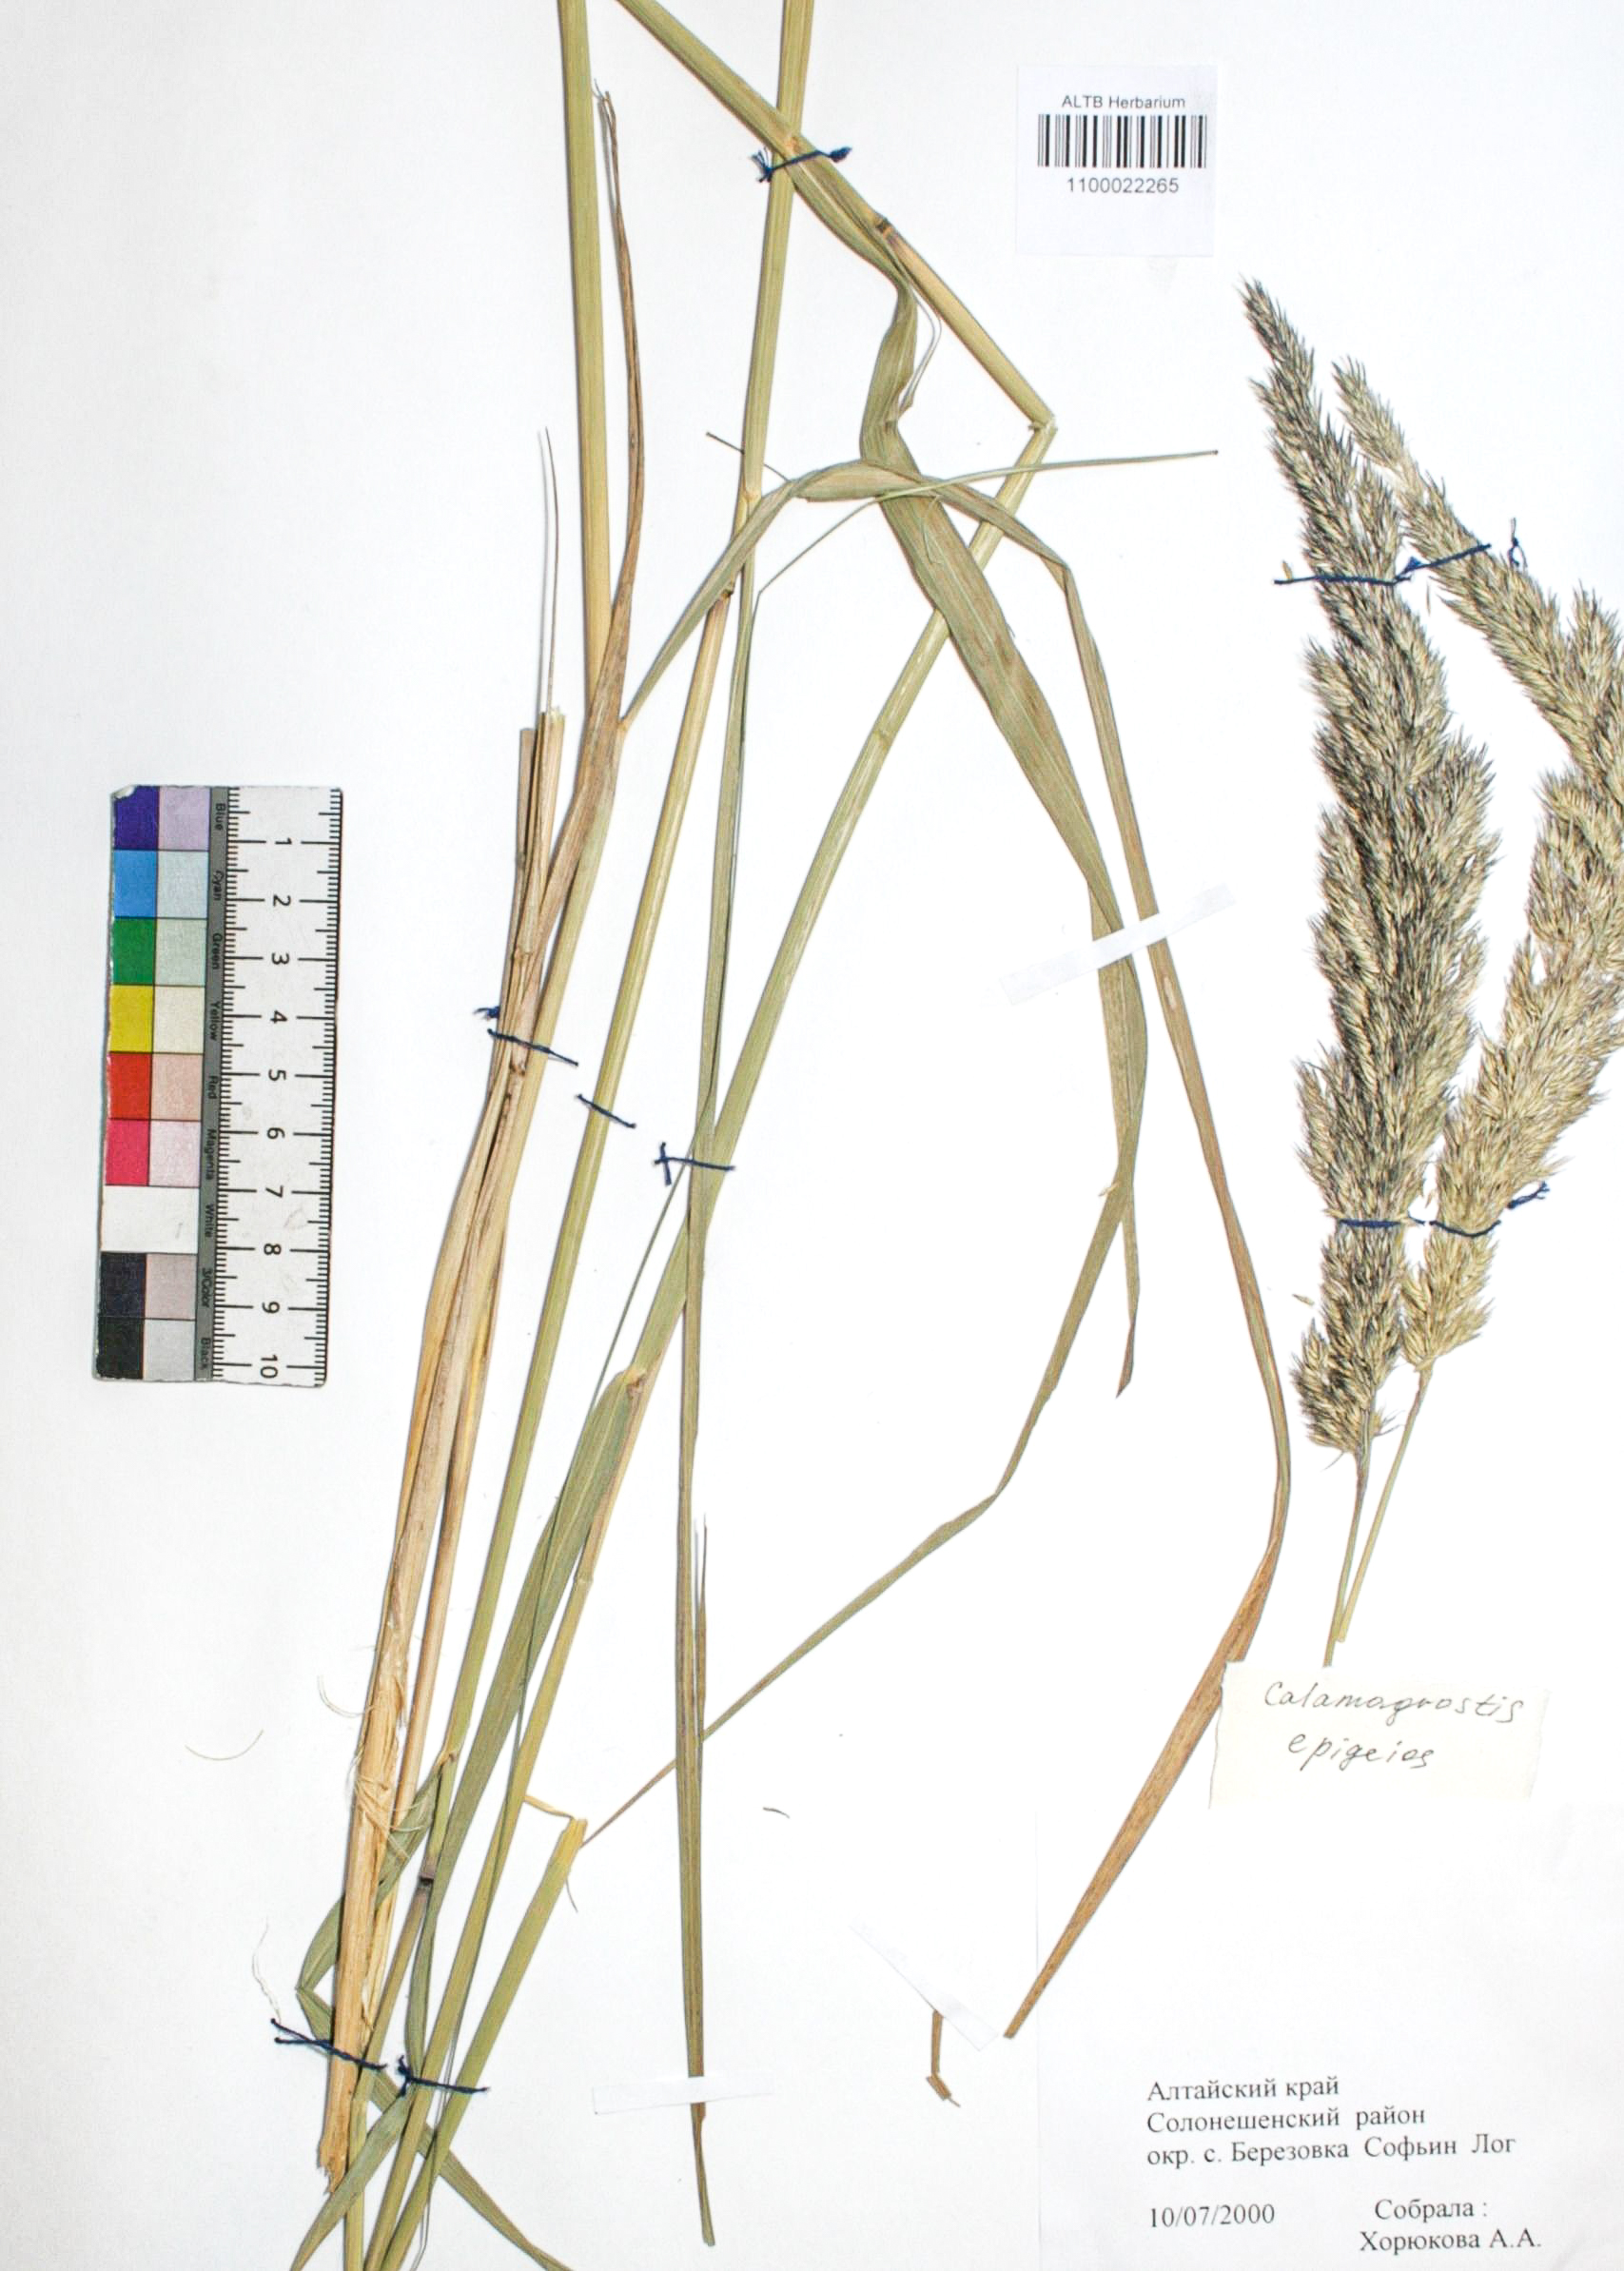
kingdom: Plantae
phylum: Tracheophyta
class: Liliopsida
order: Poales
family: Poaceae
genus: Calamagrostis
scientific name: Calamagrostis epigejos
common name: Wood small-reed
